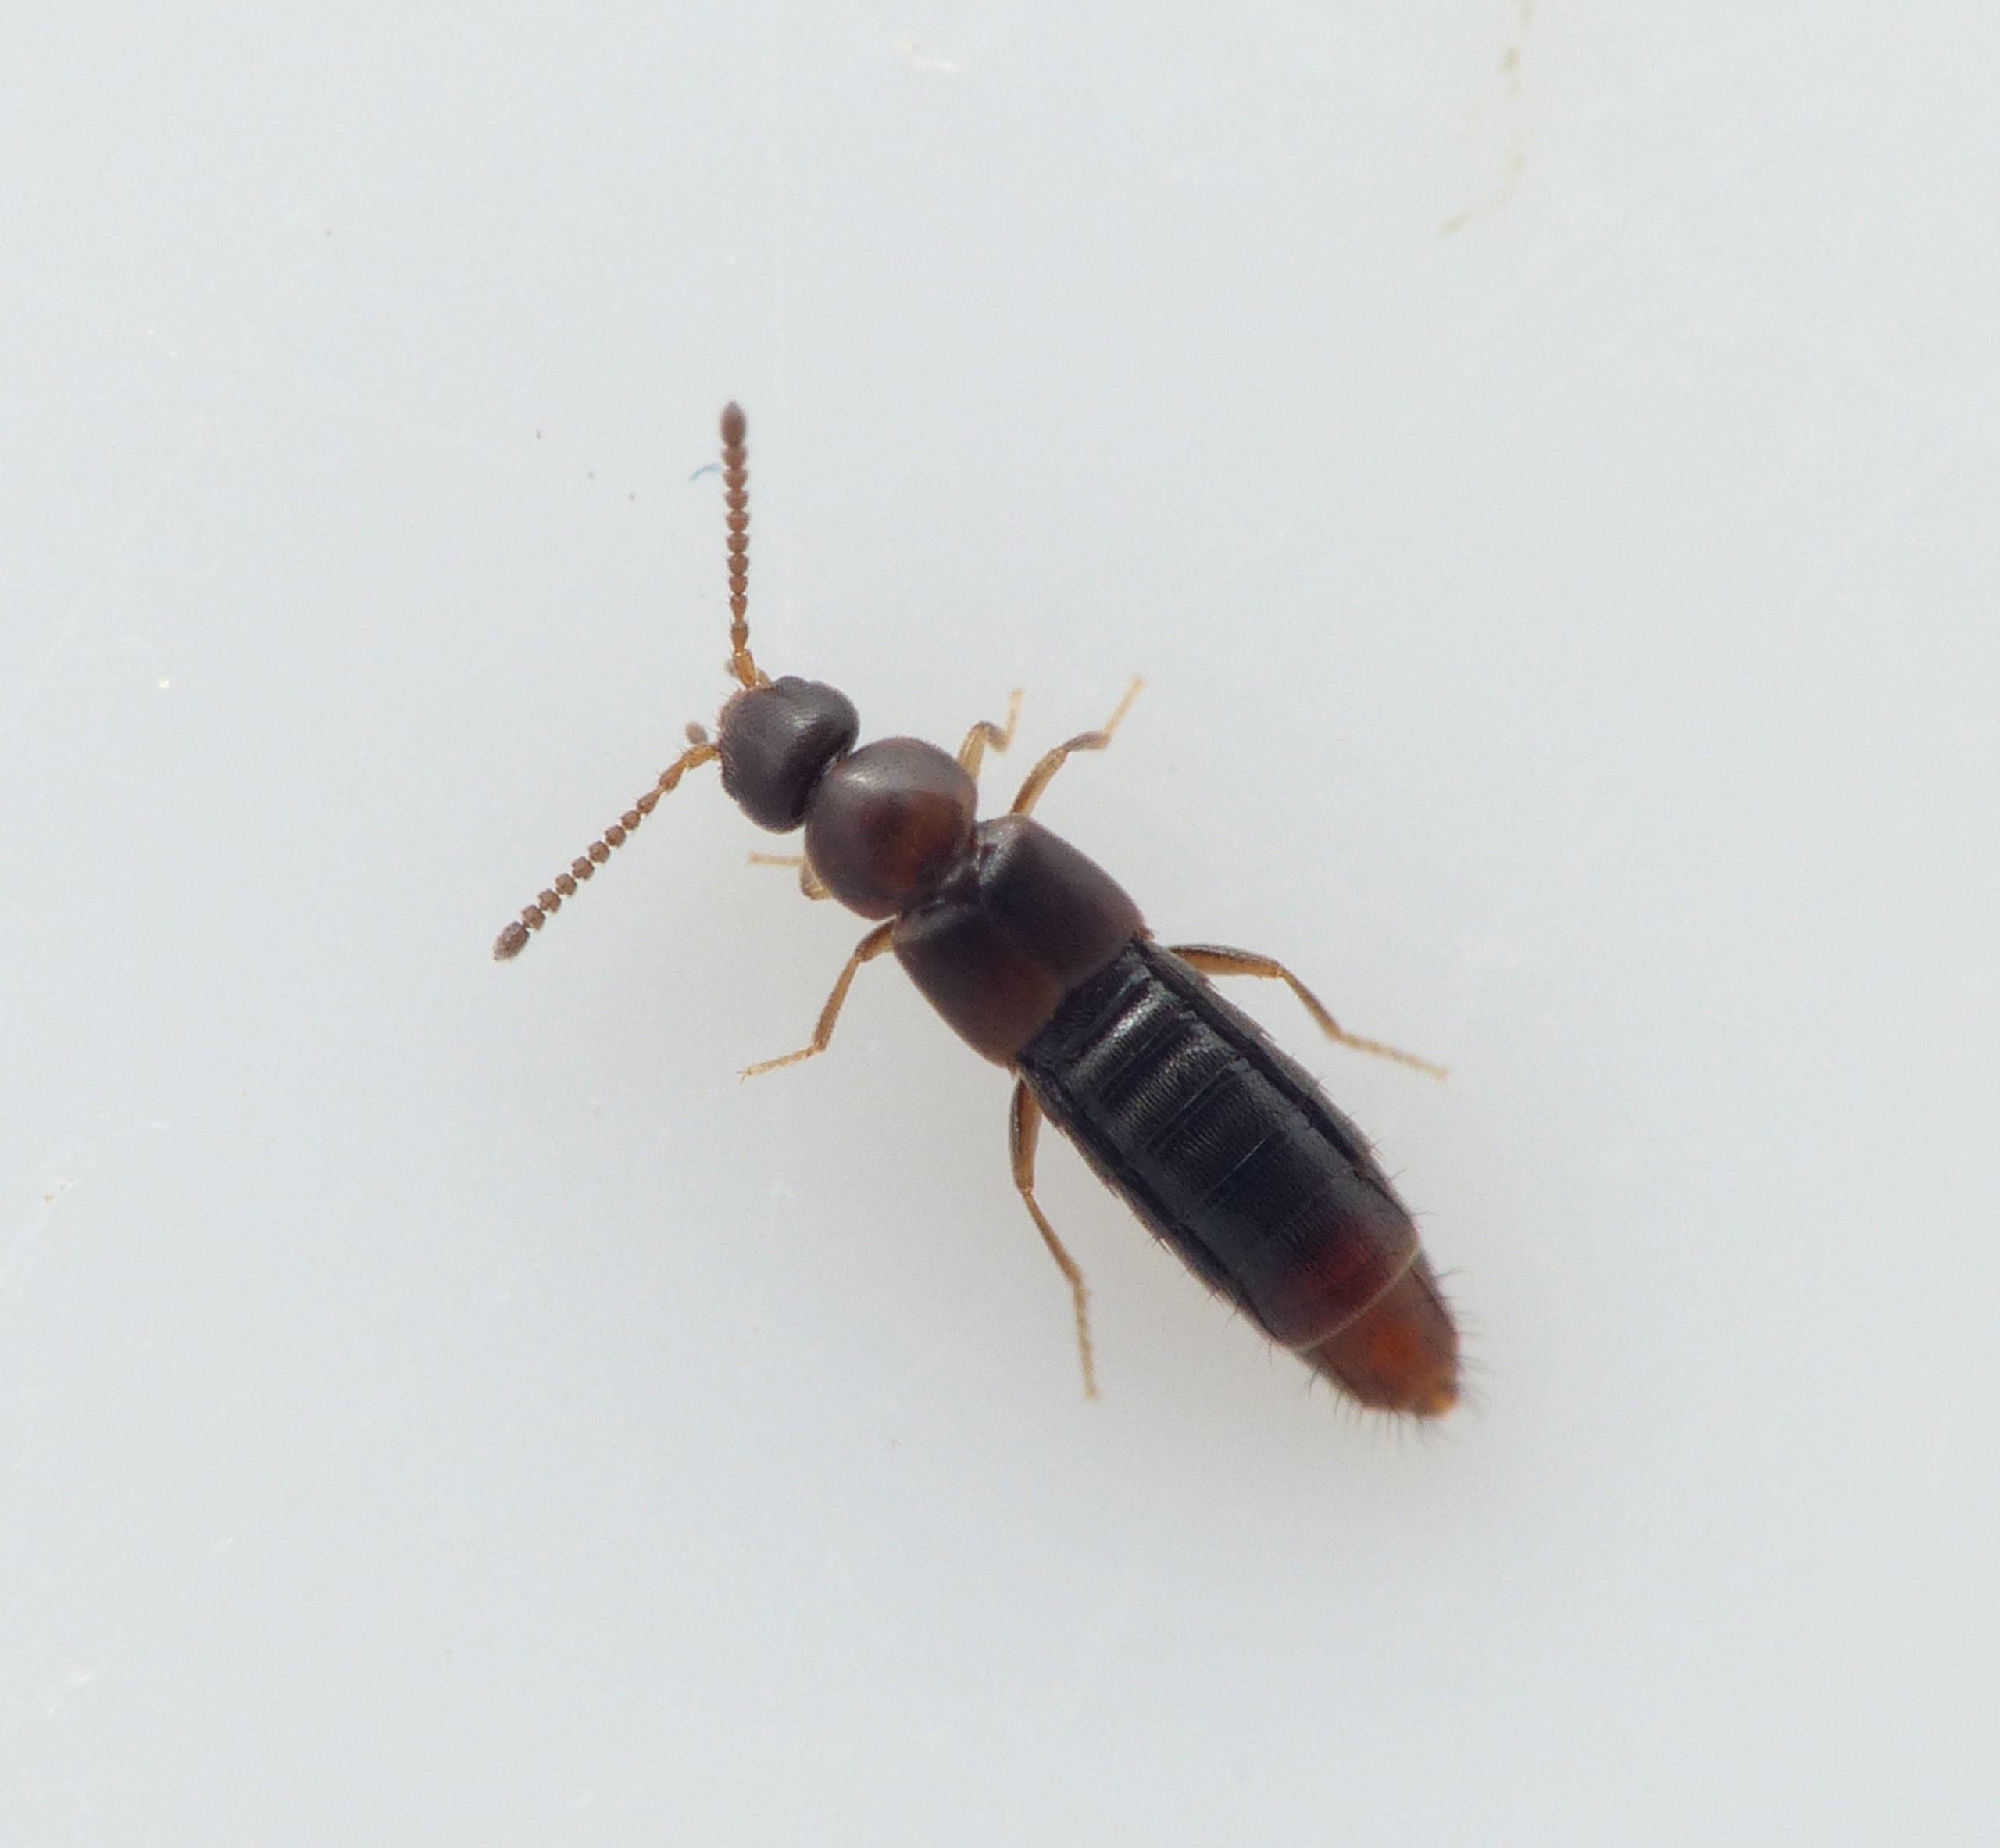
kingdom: Animalia
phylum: Arthropoda
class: Insecta
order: Coleoptera
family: Staphylinidae
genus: Amischa
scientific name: Amischa analis
